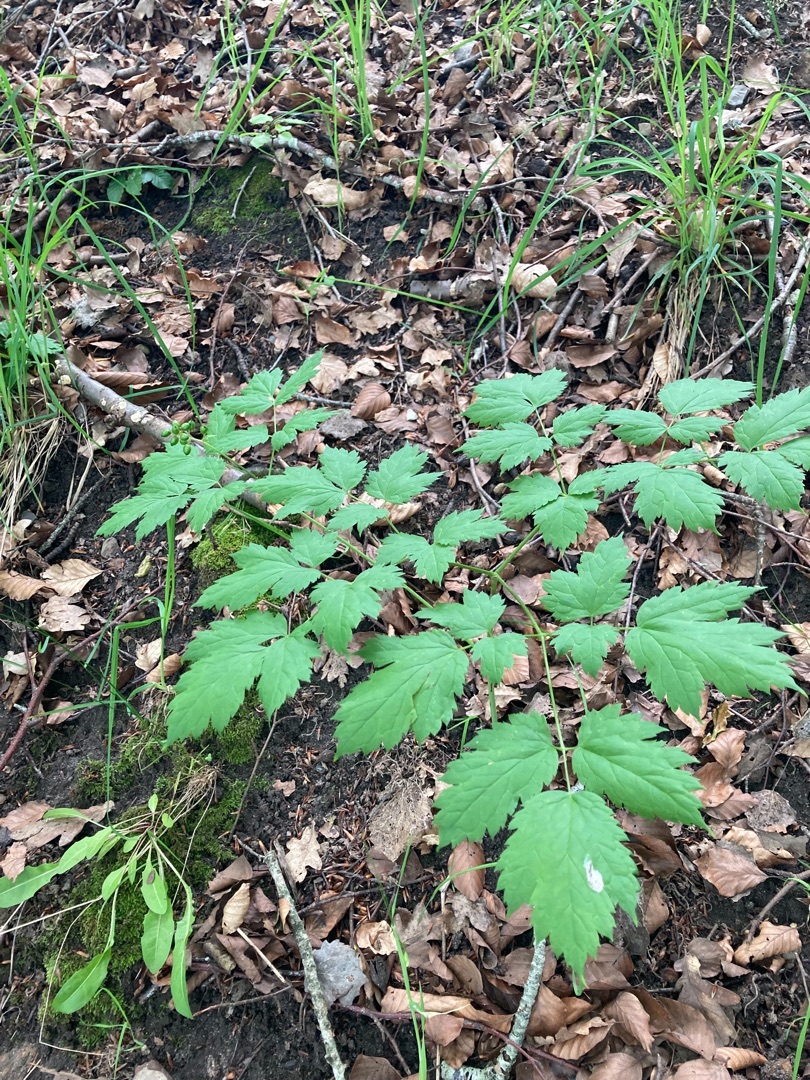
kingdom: Plantae
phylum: Tracheophyta
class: Magnoliopsida
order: Ranunculales
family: Ranunculaceae
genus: Actaea
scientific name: Actaea spicata
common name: Druemunke
